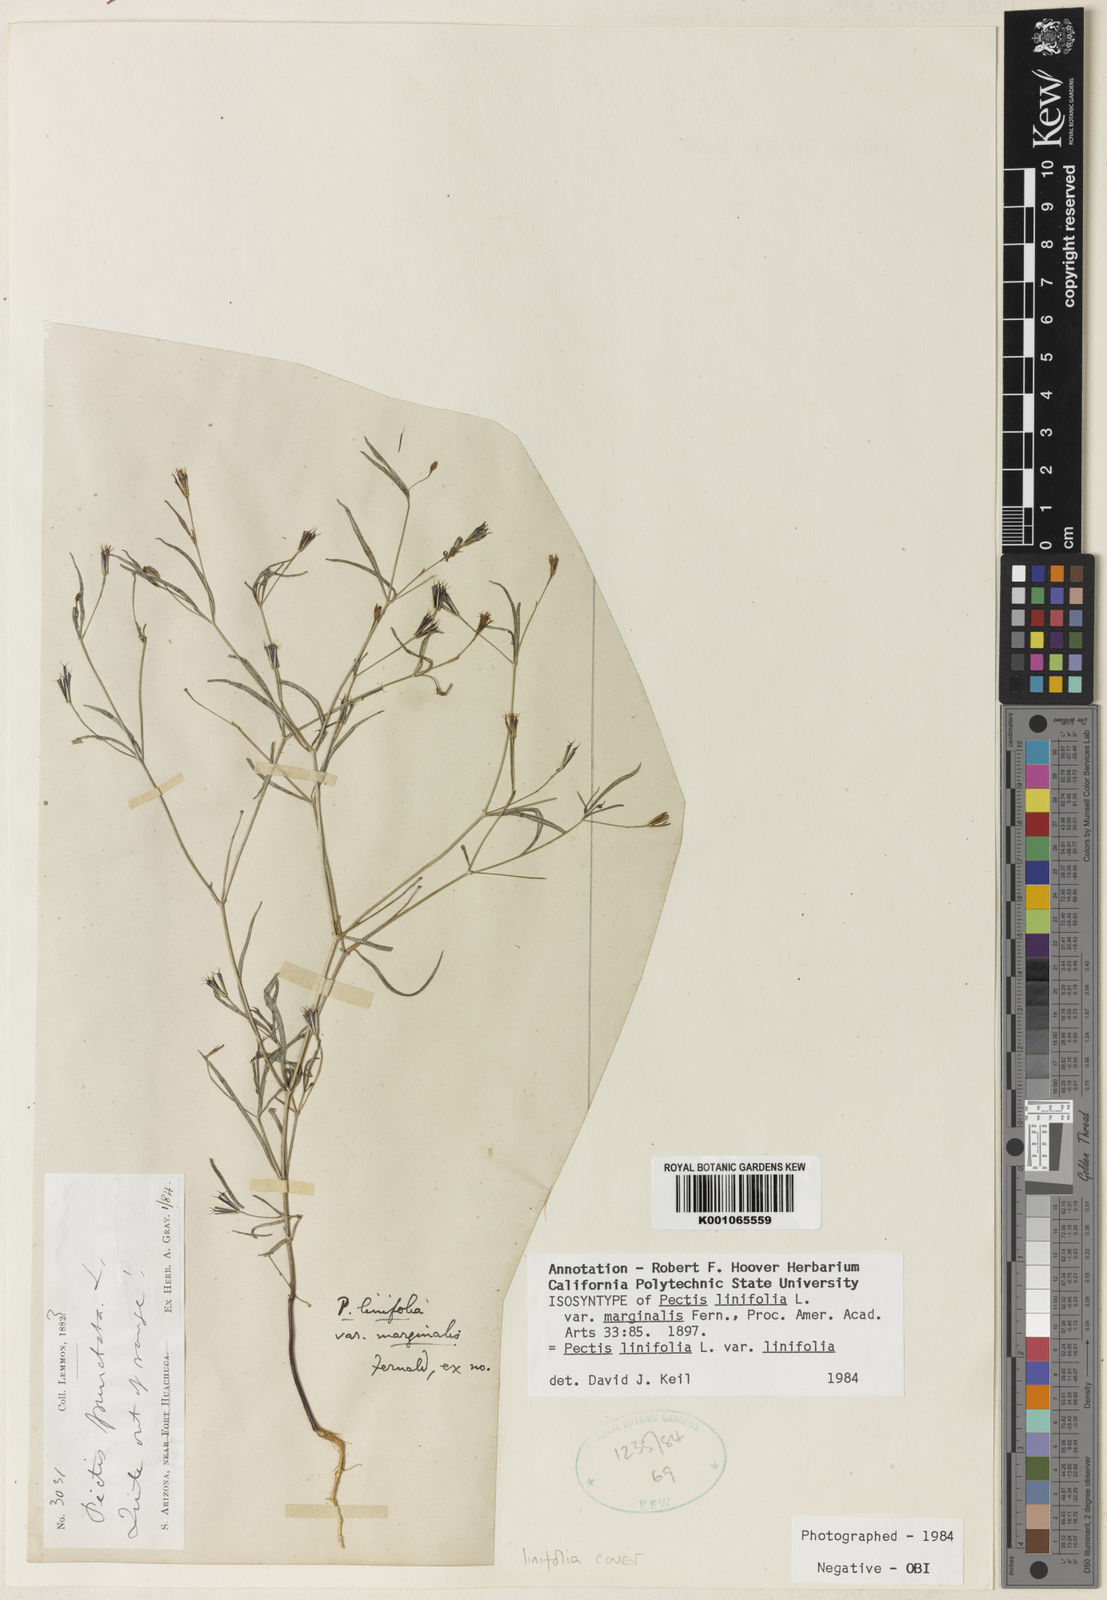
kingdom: Plantae
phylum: Tracheophyta
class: Magnoliopsida
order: Asterales
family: Asteraceae
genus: Pectis
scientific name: Pectis linifolia
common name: Romero macho
